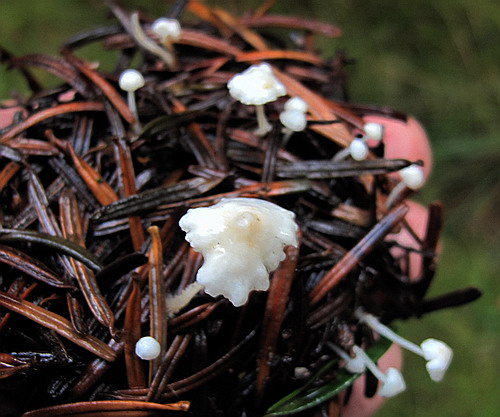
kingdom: Fungi
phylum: Basidiomycota
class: Agaricomycetes
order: Agaricales
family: Mycenaceae
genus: Hemimycena
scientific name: Hemimycena lactea
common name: mælkehvid huesvamp
